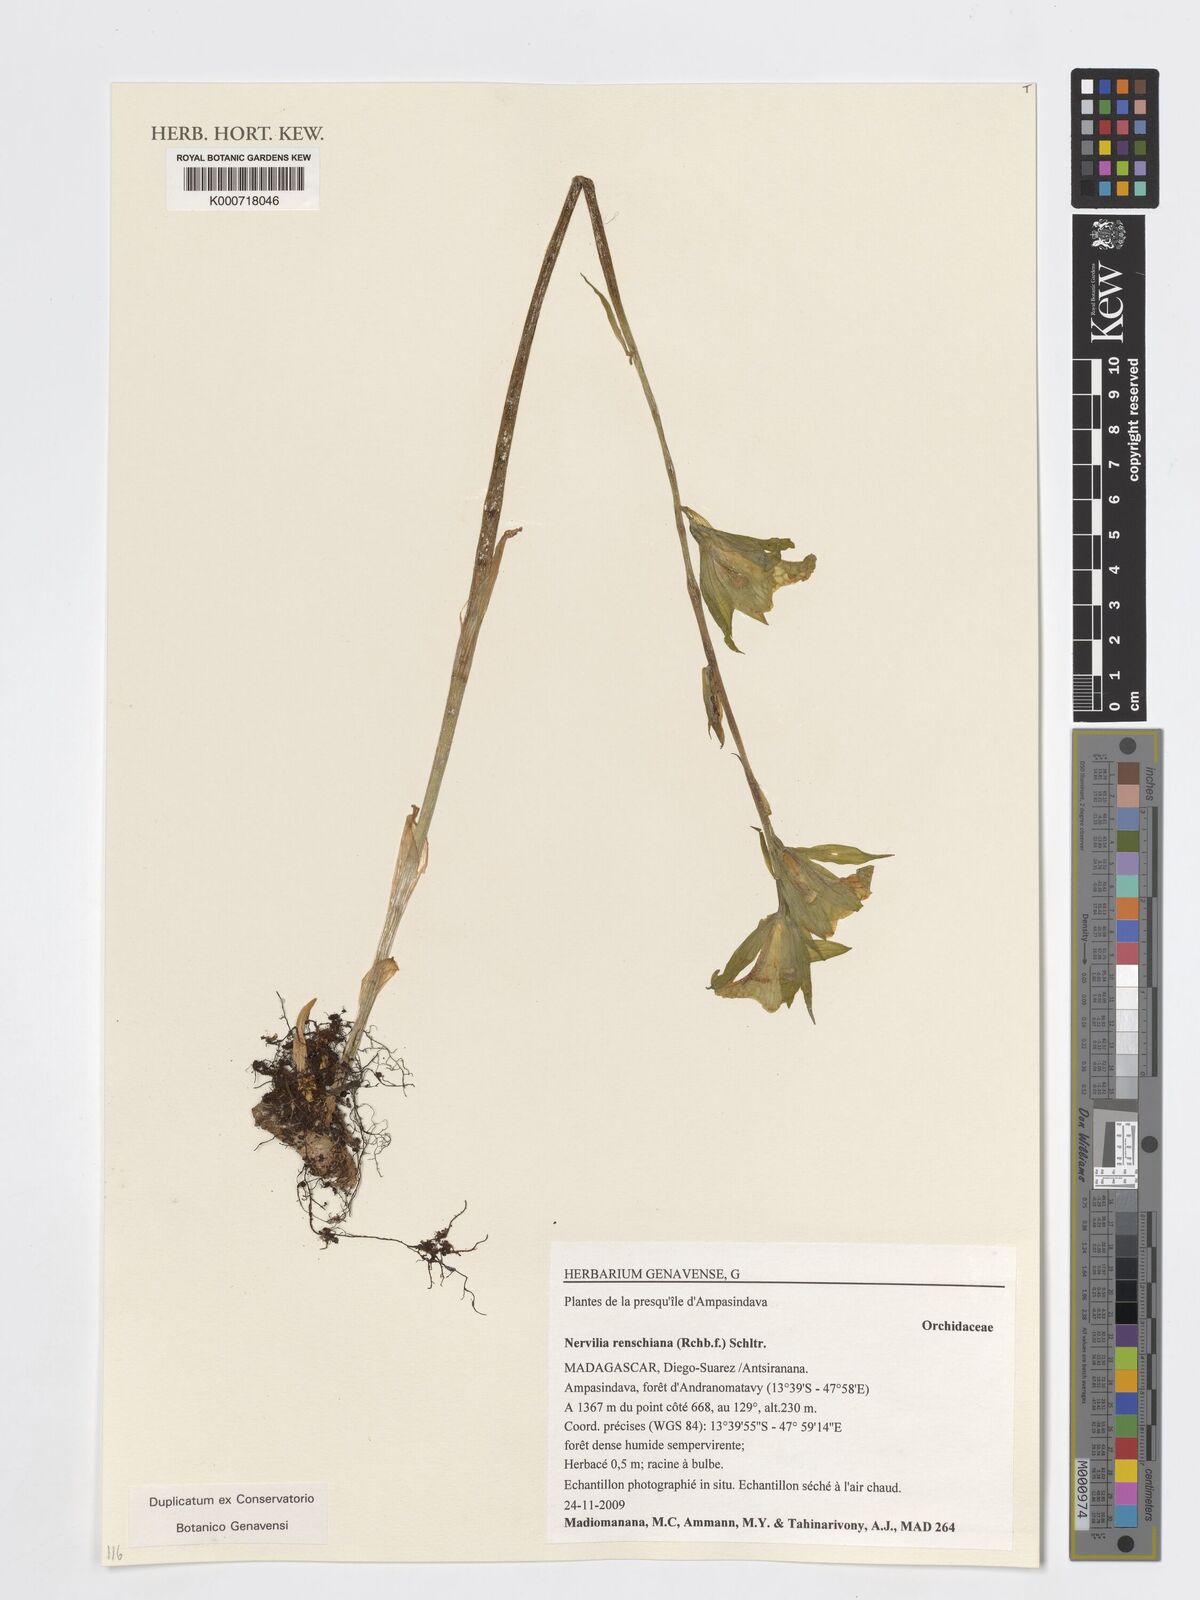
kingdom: Plantae
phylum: Tracheophyta
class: Liliopsida
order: Asparagales
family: Orchidaceae
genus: Nervilia
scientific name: Nervilia renschiana
